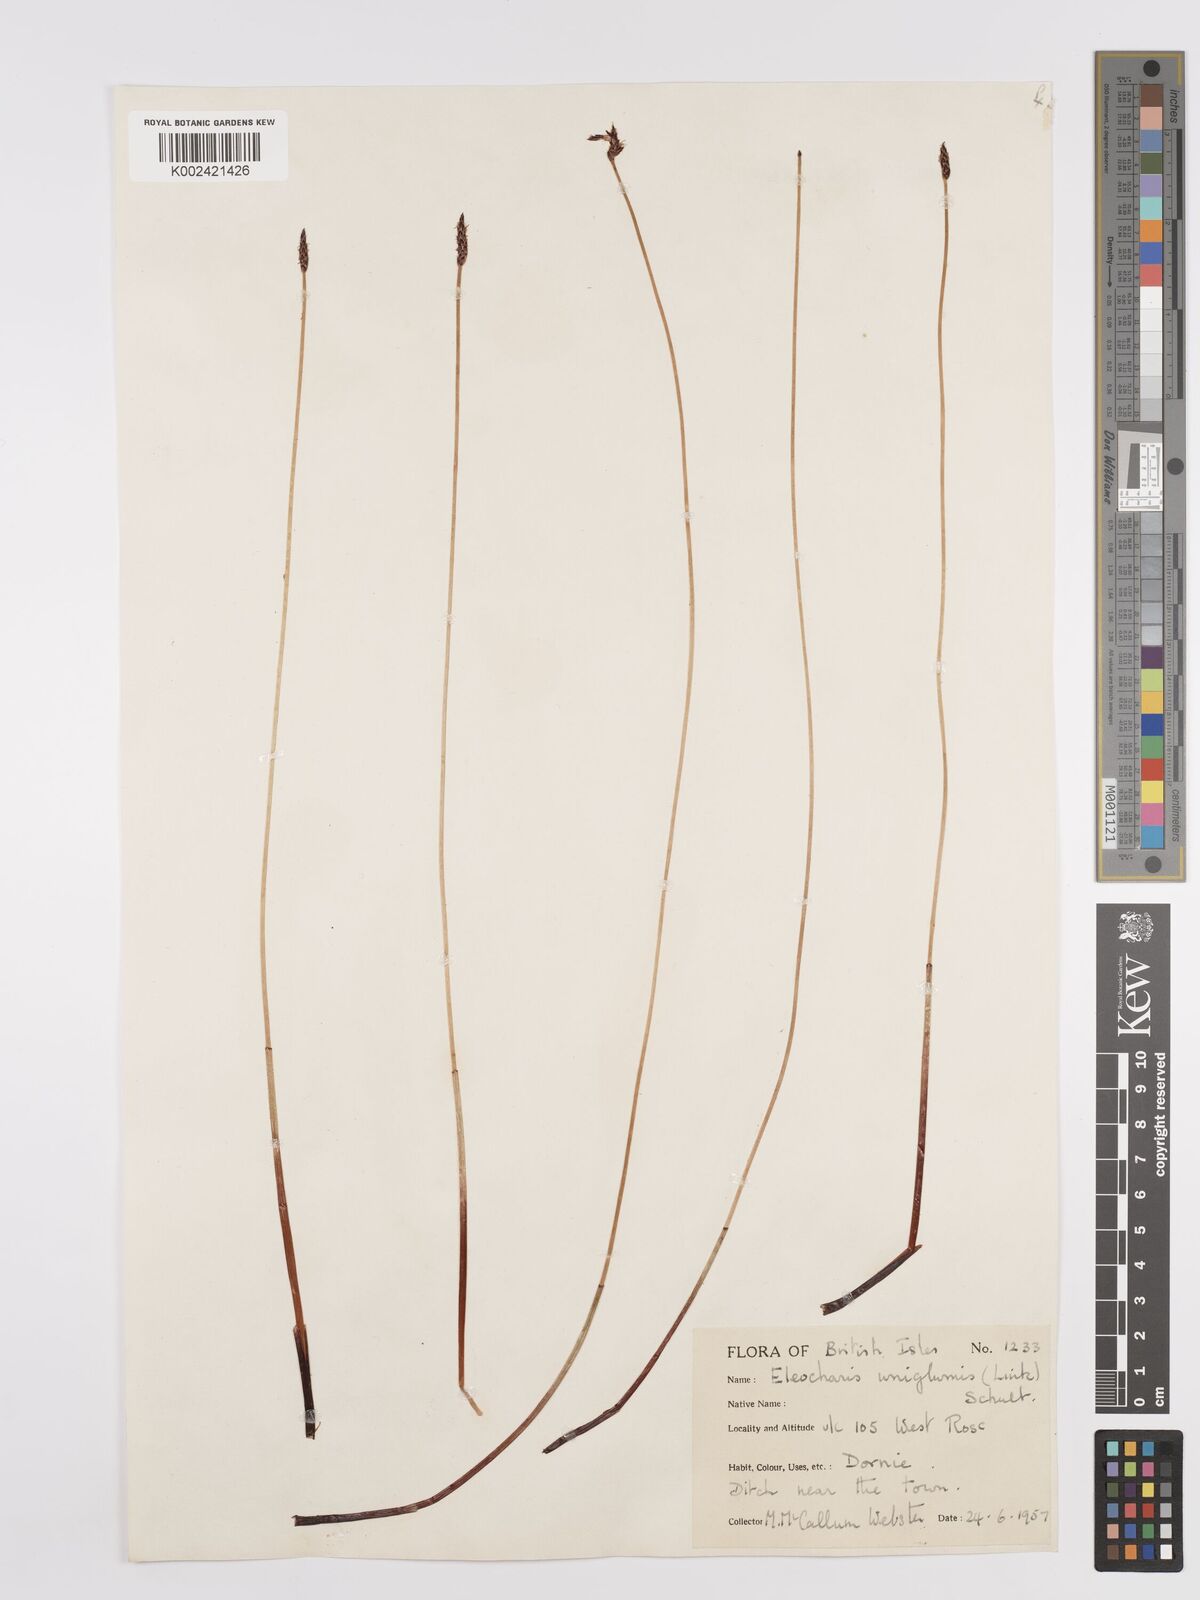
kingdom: Plantae
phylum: Tracheophyta
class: Liliopsida
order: Poales
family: Cyperaceae
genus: Eleocharis
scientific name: Eleocharis uniglumis
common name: Slender spike-rush
